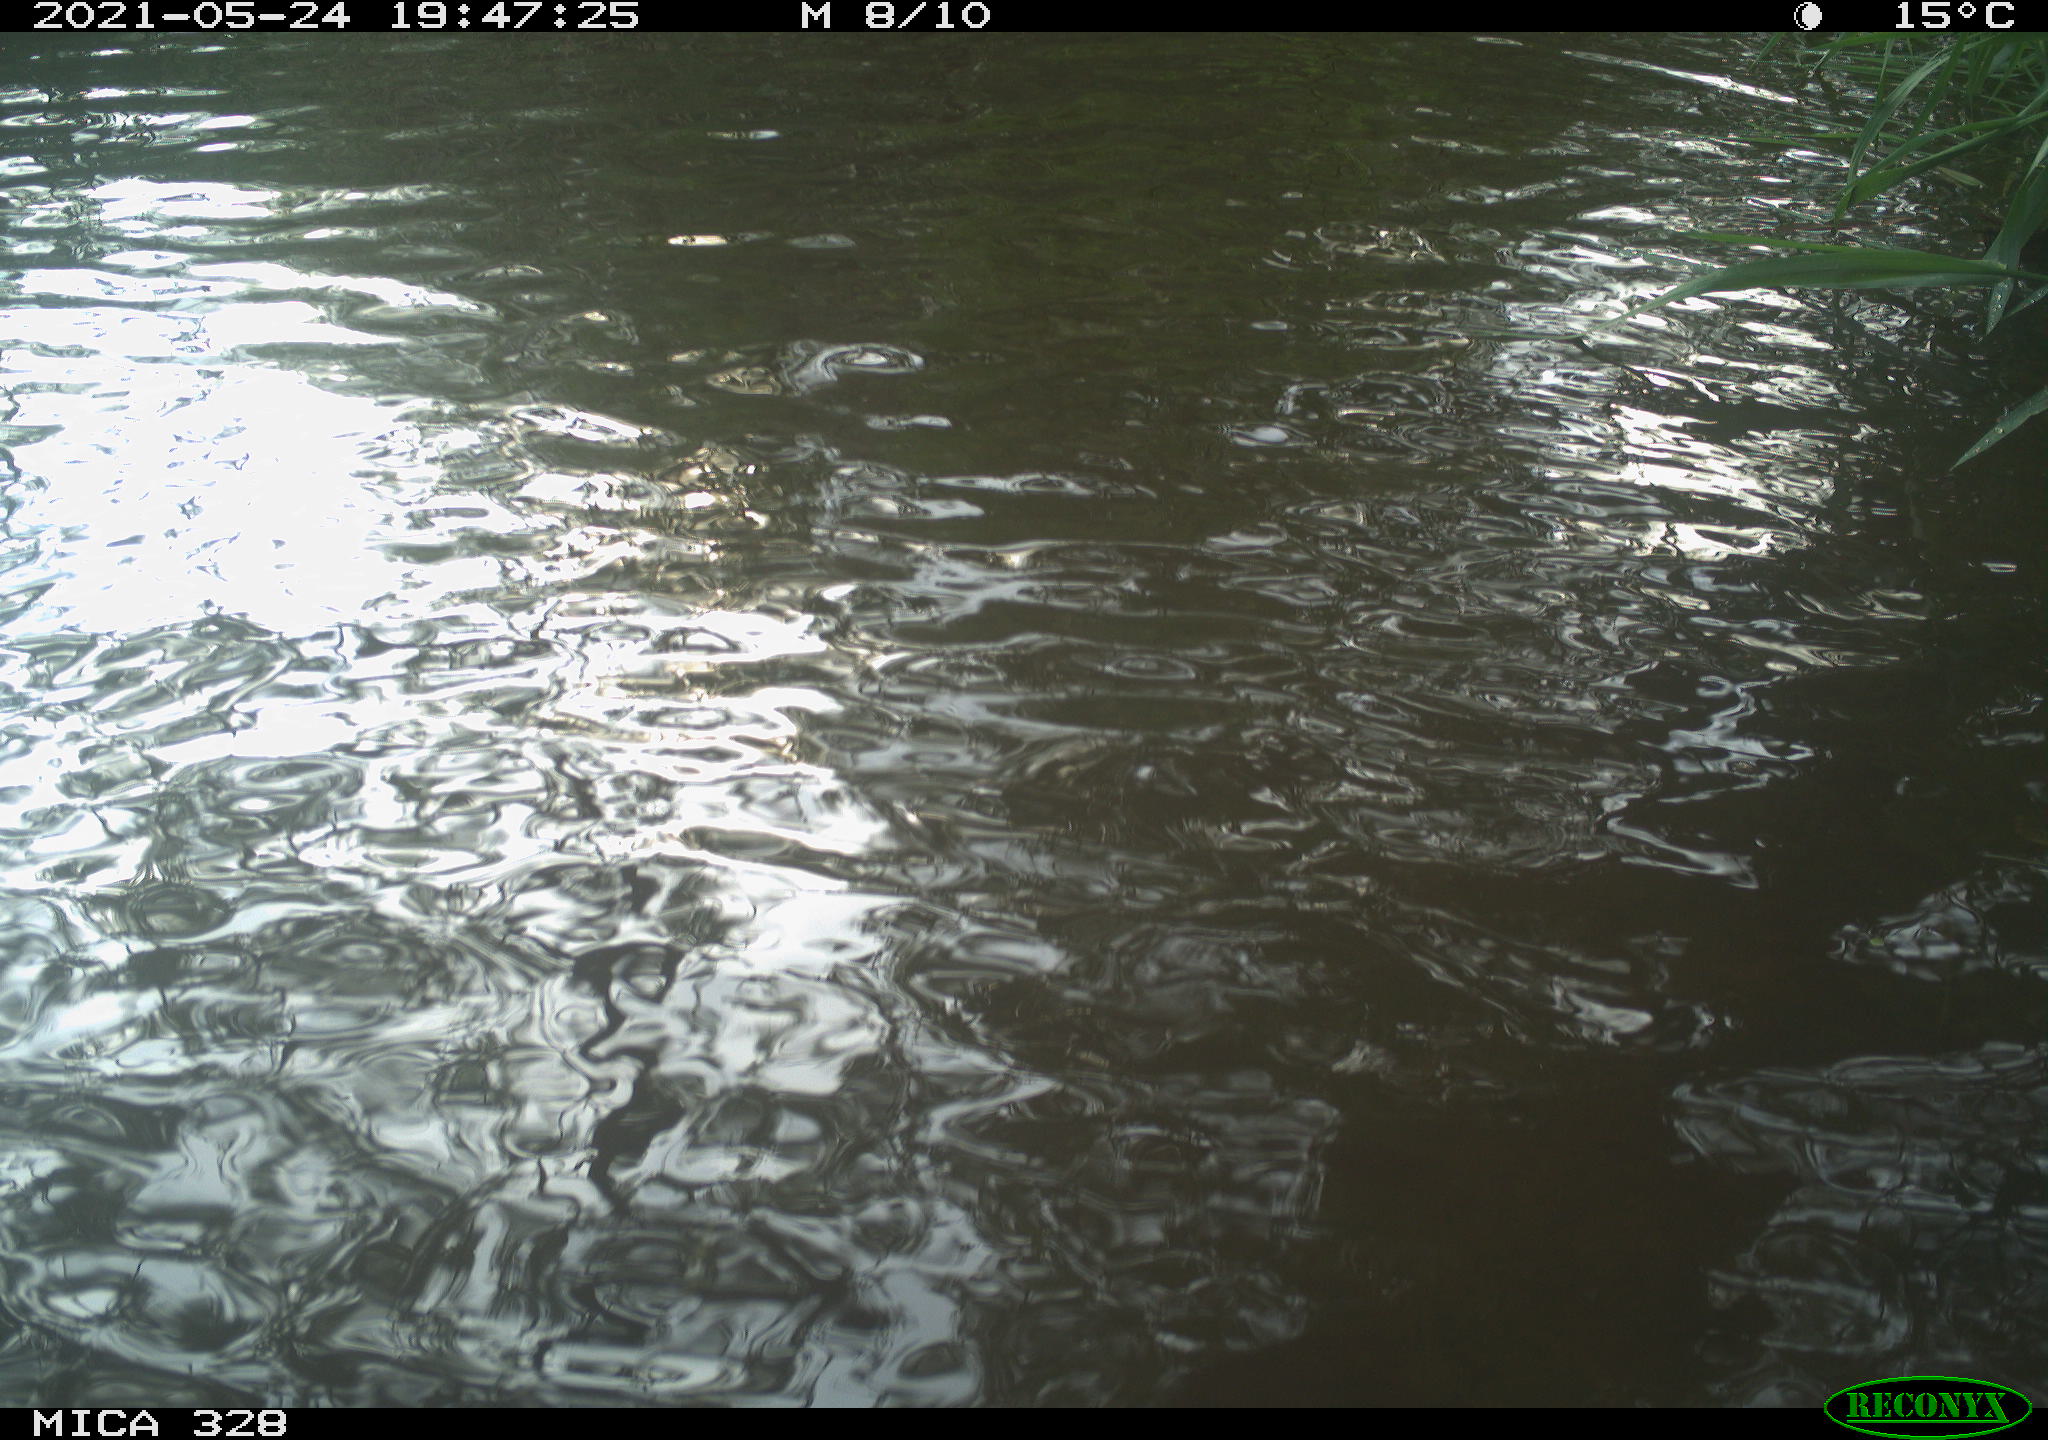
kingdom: Animalia
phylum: Chordata
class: Aves
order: Anseriformes
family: Anatidae
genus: Aix
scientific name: Aix galericulata
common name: Mandarin duck
